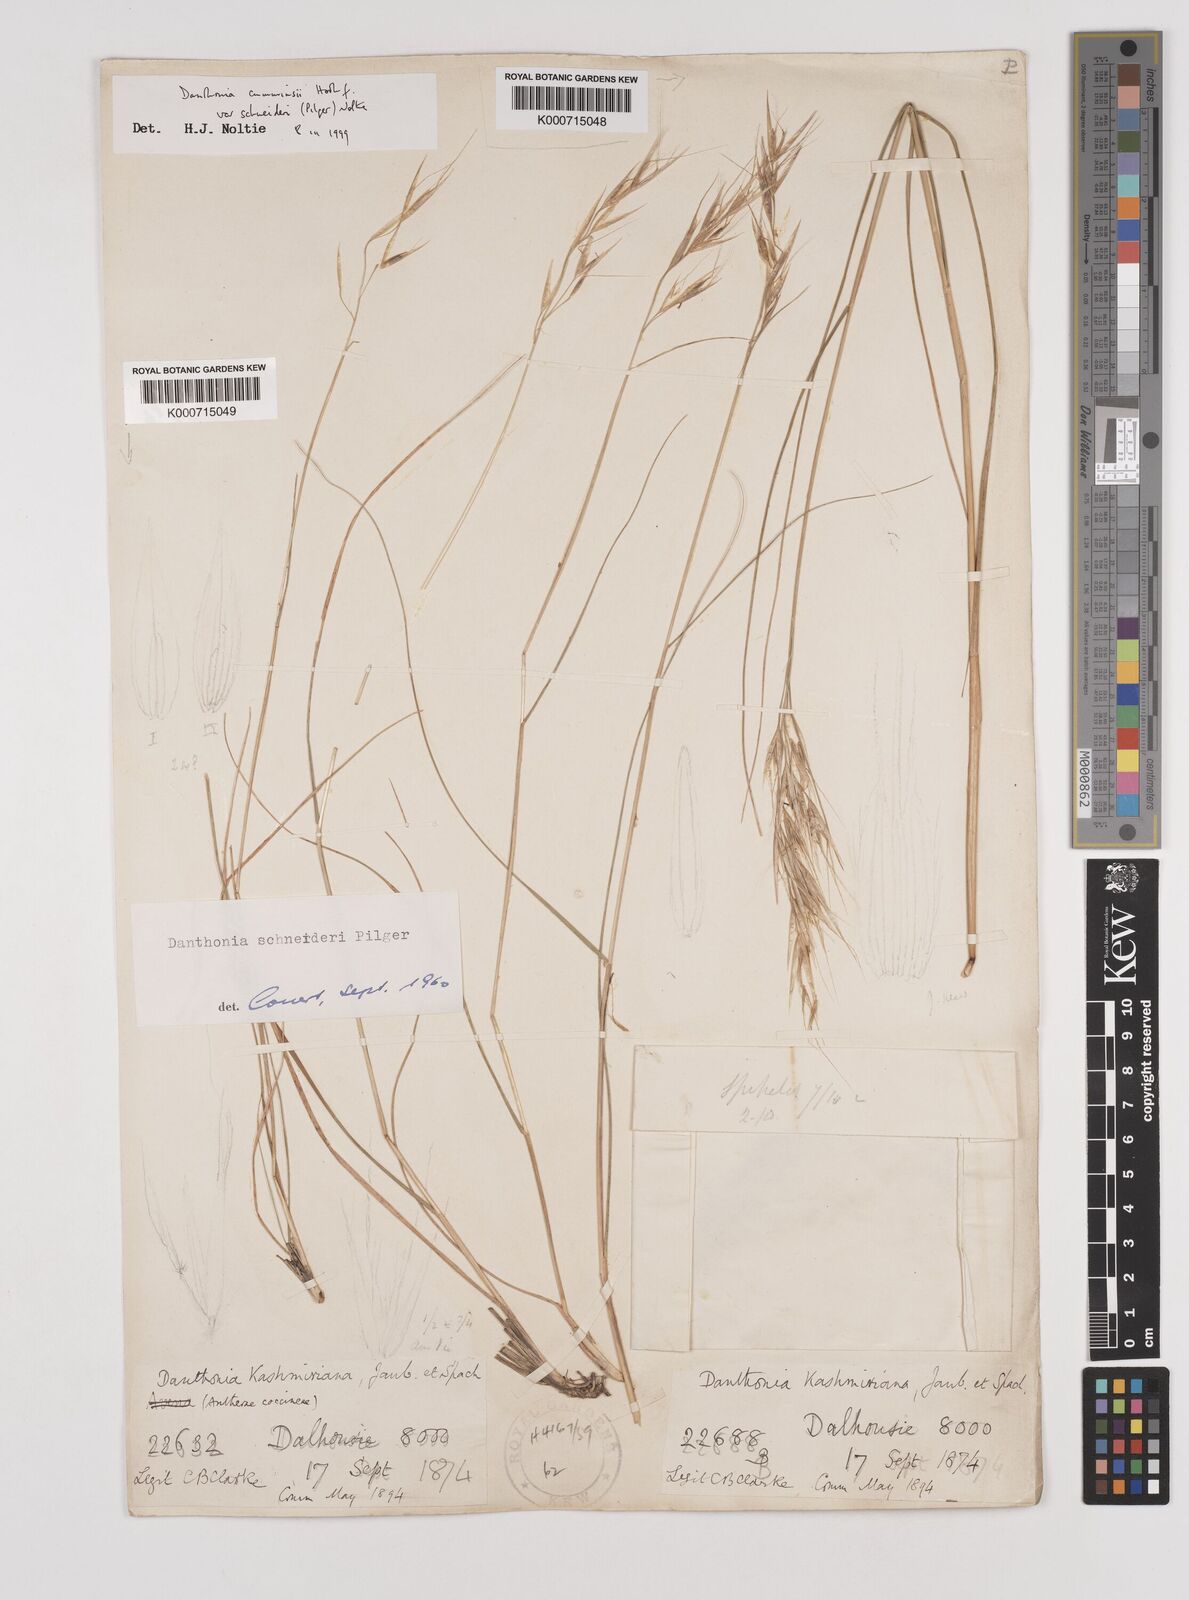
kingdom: Plantae
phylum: Tracheophyta
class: Liliopsida
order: Poales
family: Poaceae
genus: Rytidosperma
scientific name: Rytidosperma
